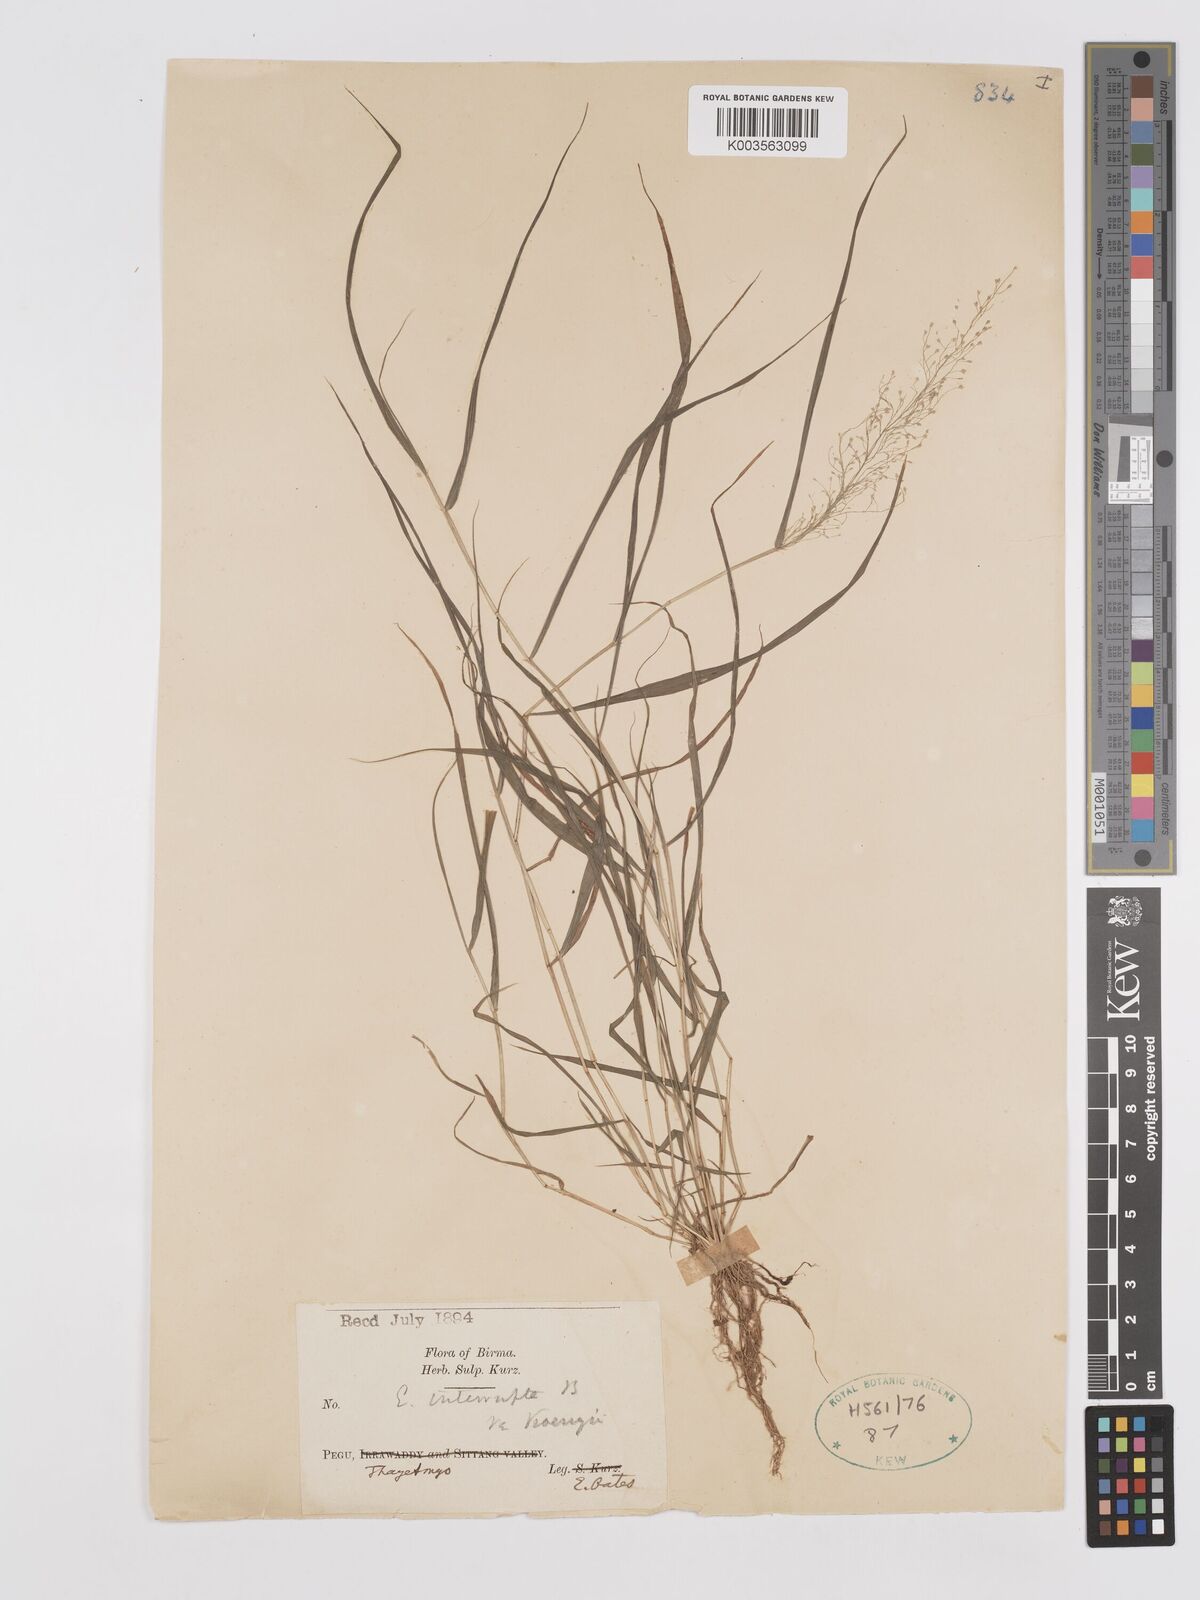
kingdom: Plantae
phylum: Tracheophyta
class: Liliopsida
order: Poales
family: Poaceae
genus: Eragrostis
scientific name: Eragrostis japonica
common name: Pond lovegrass
